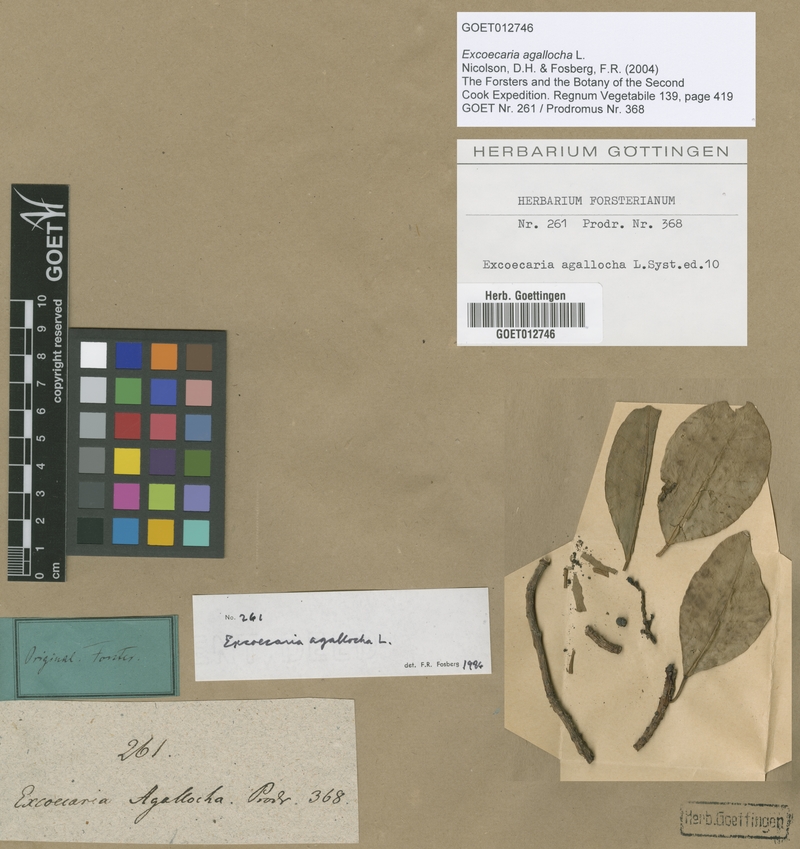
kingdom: Plantae
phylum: Tracheophyta
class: Magnoliopsida
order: Malpighiales
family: Euphorbiaceae
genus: Excoecaria
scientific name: Excoecaria agallocha
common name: River poisontree
